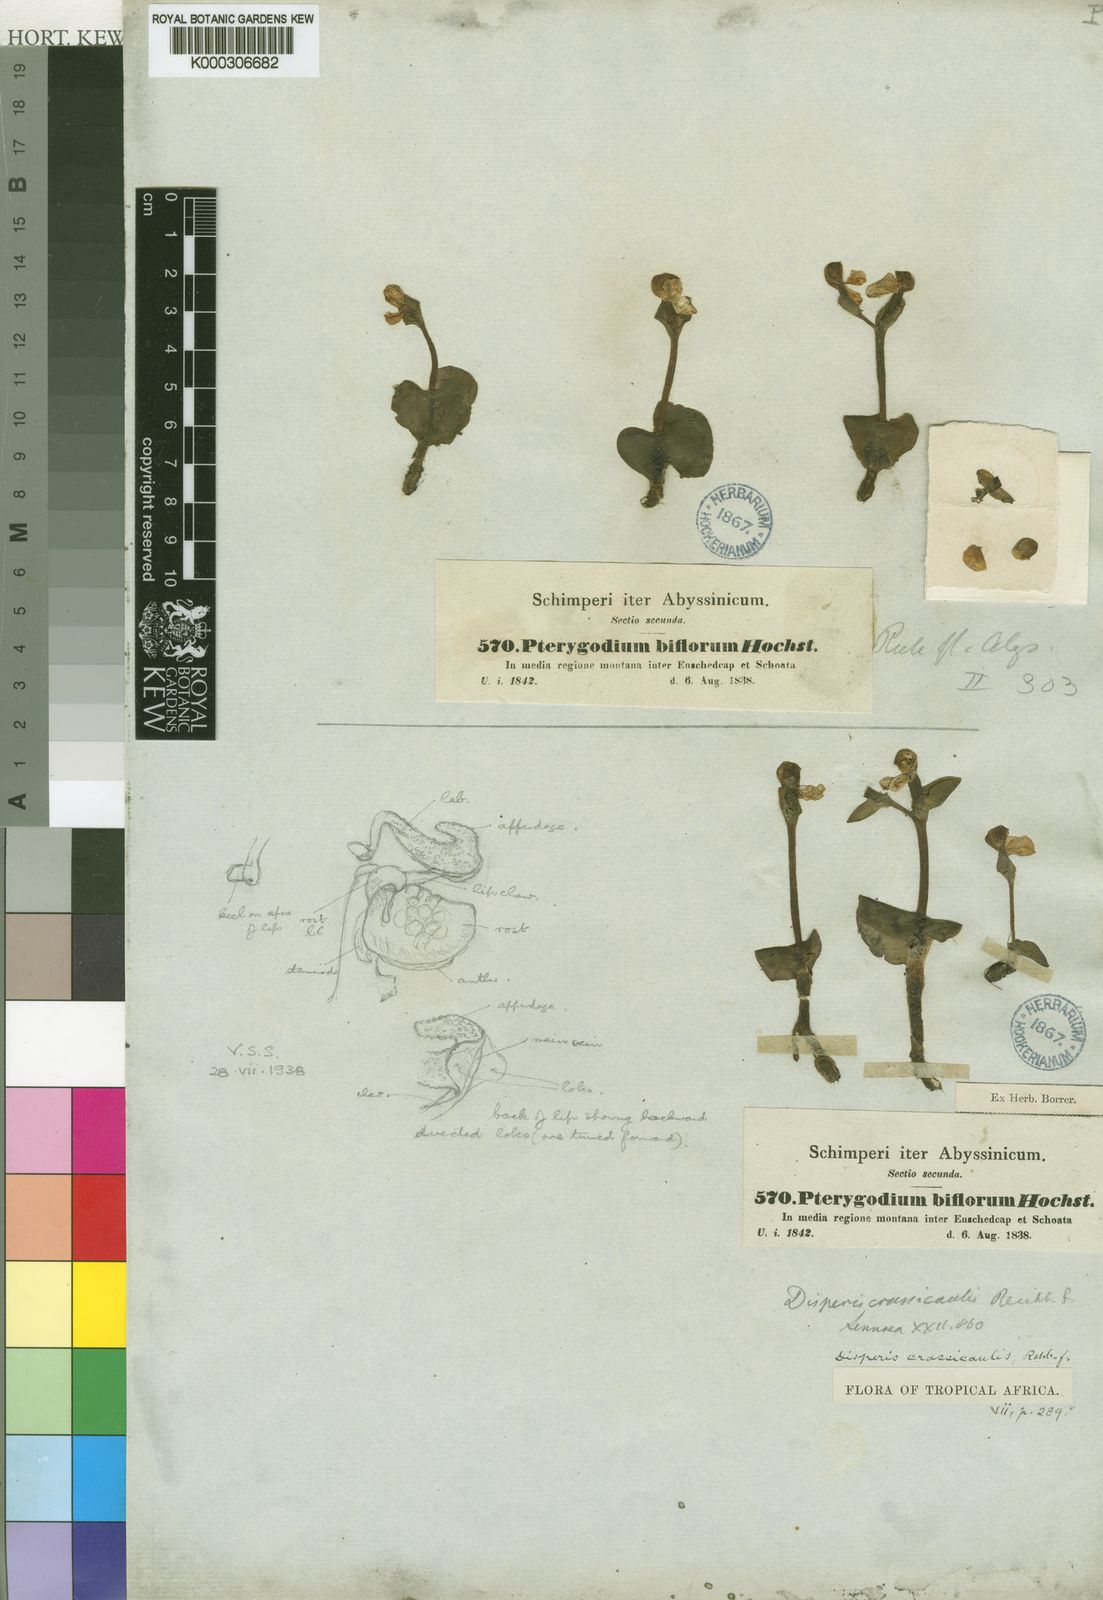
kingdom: Plantae
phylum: Tracheophyta
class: Liliopsida
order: Asparagales
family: Orchidaceae
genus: Disperis
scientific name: Disperis crassicaulis
